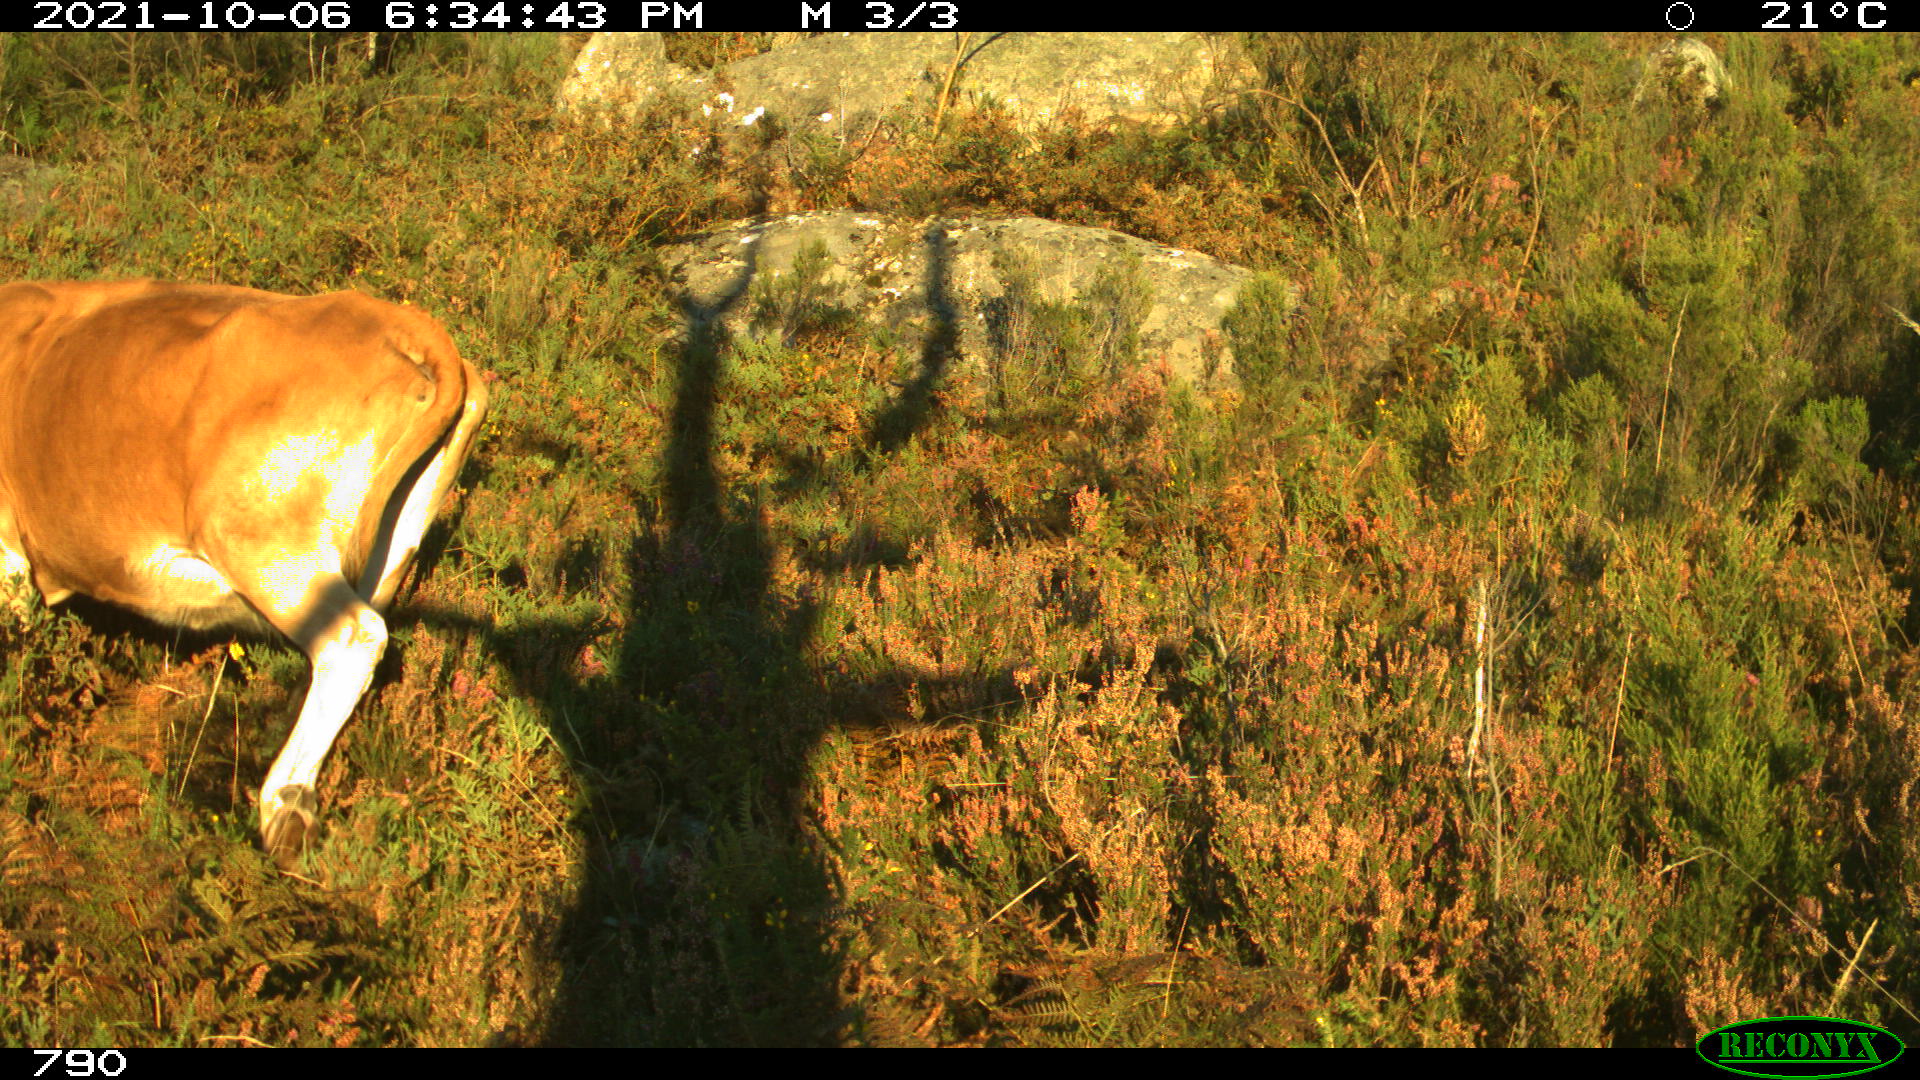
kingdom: Animalia
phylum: Chordata
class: Mammalia
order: Artiodactyla
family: Bovidae
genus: Bos
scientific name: Bos taurus
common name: Domesticated cattle
